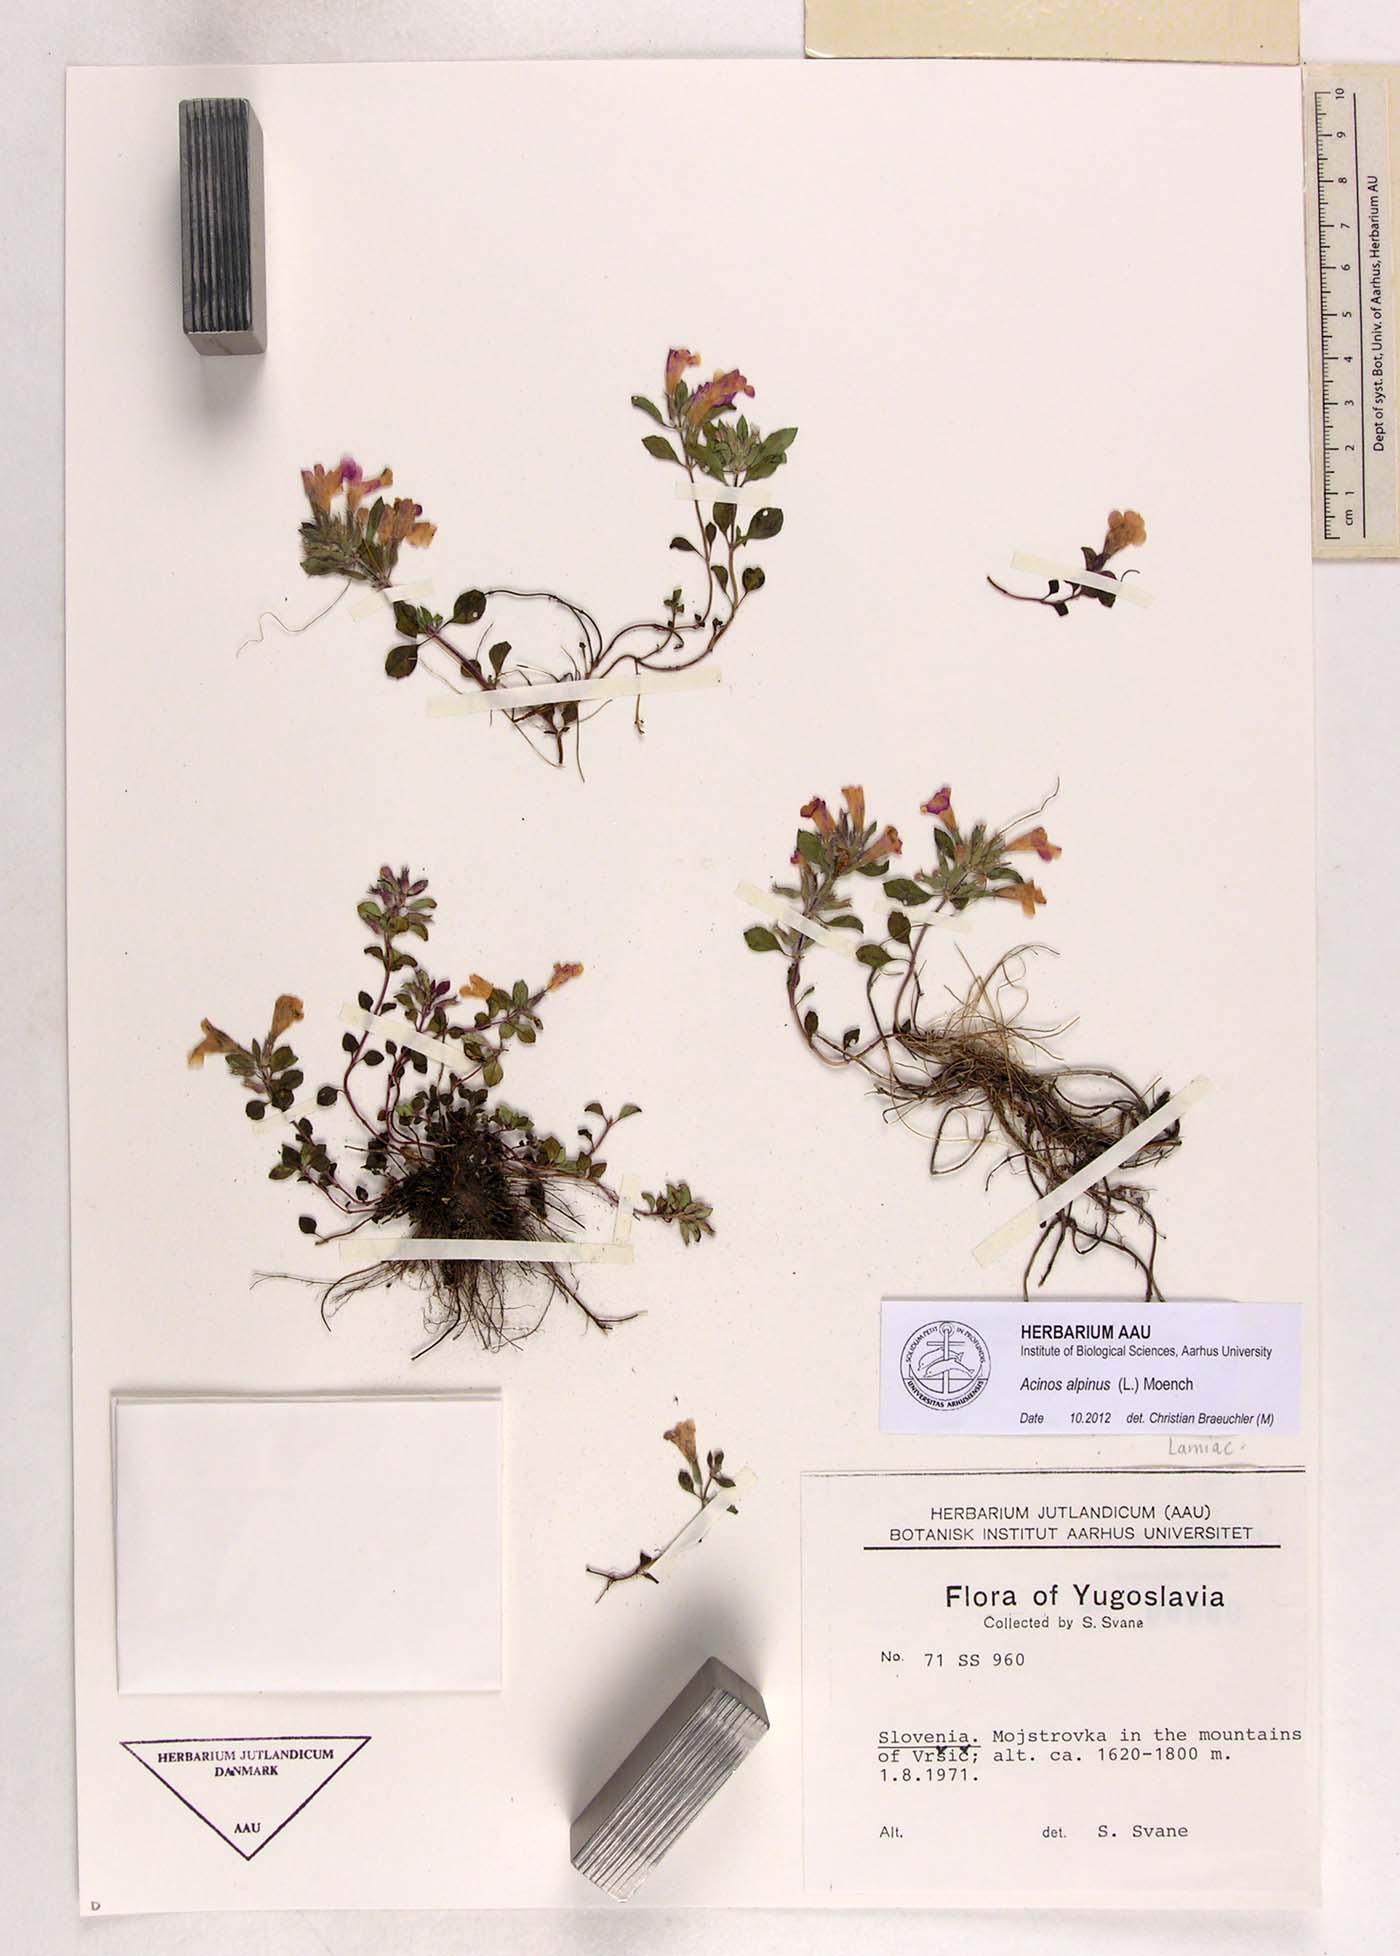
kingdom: Plantae
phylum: Tracheophyta
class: Magnoliopsida
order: Lamiales
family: Lamiaceae
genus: Clinopodium
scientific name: Clinopodium alpinum
